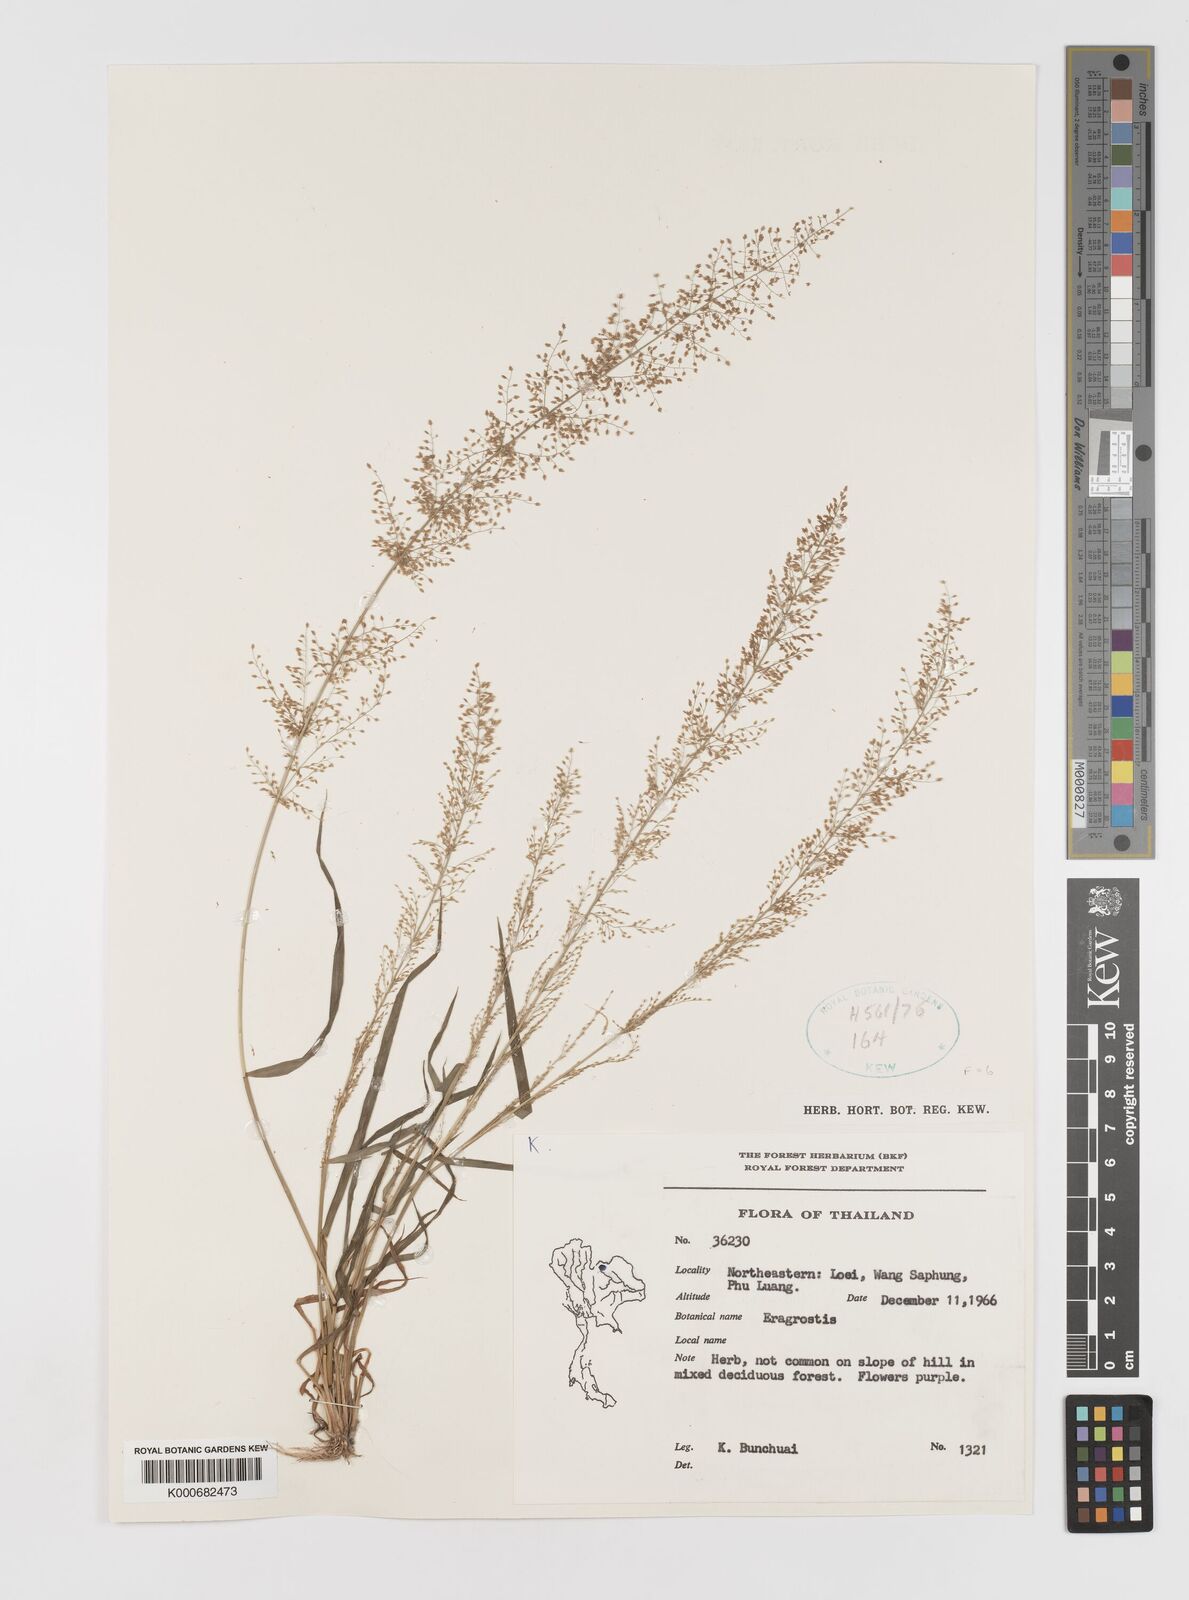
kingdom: Plantae
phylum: Tracheophyta
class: Liliopsida
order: Poales
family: Poaceae
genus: Eragrostis
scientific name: Eragrostis japonica
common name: Pond lovegrass
